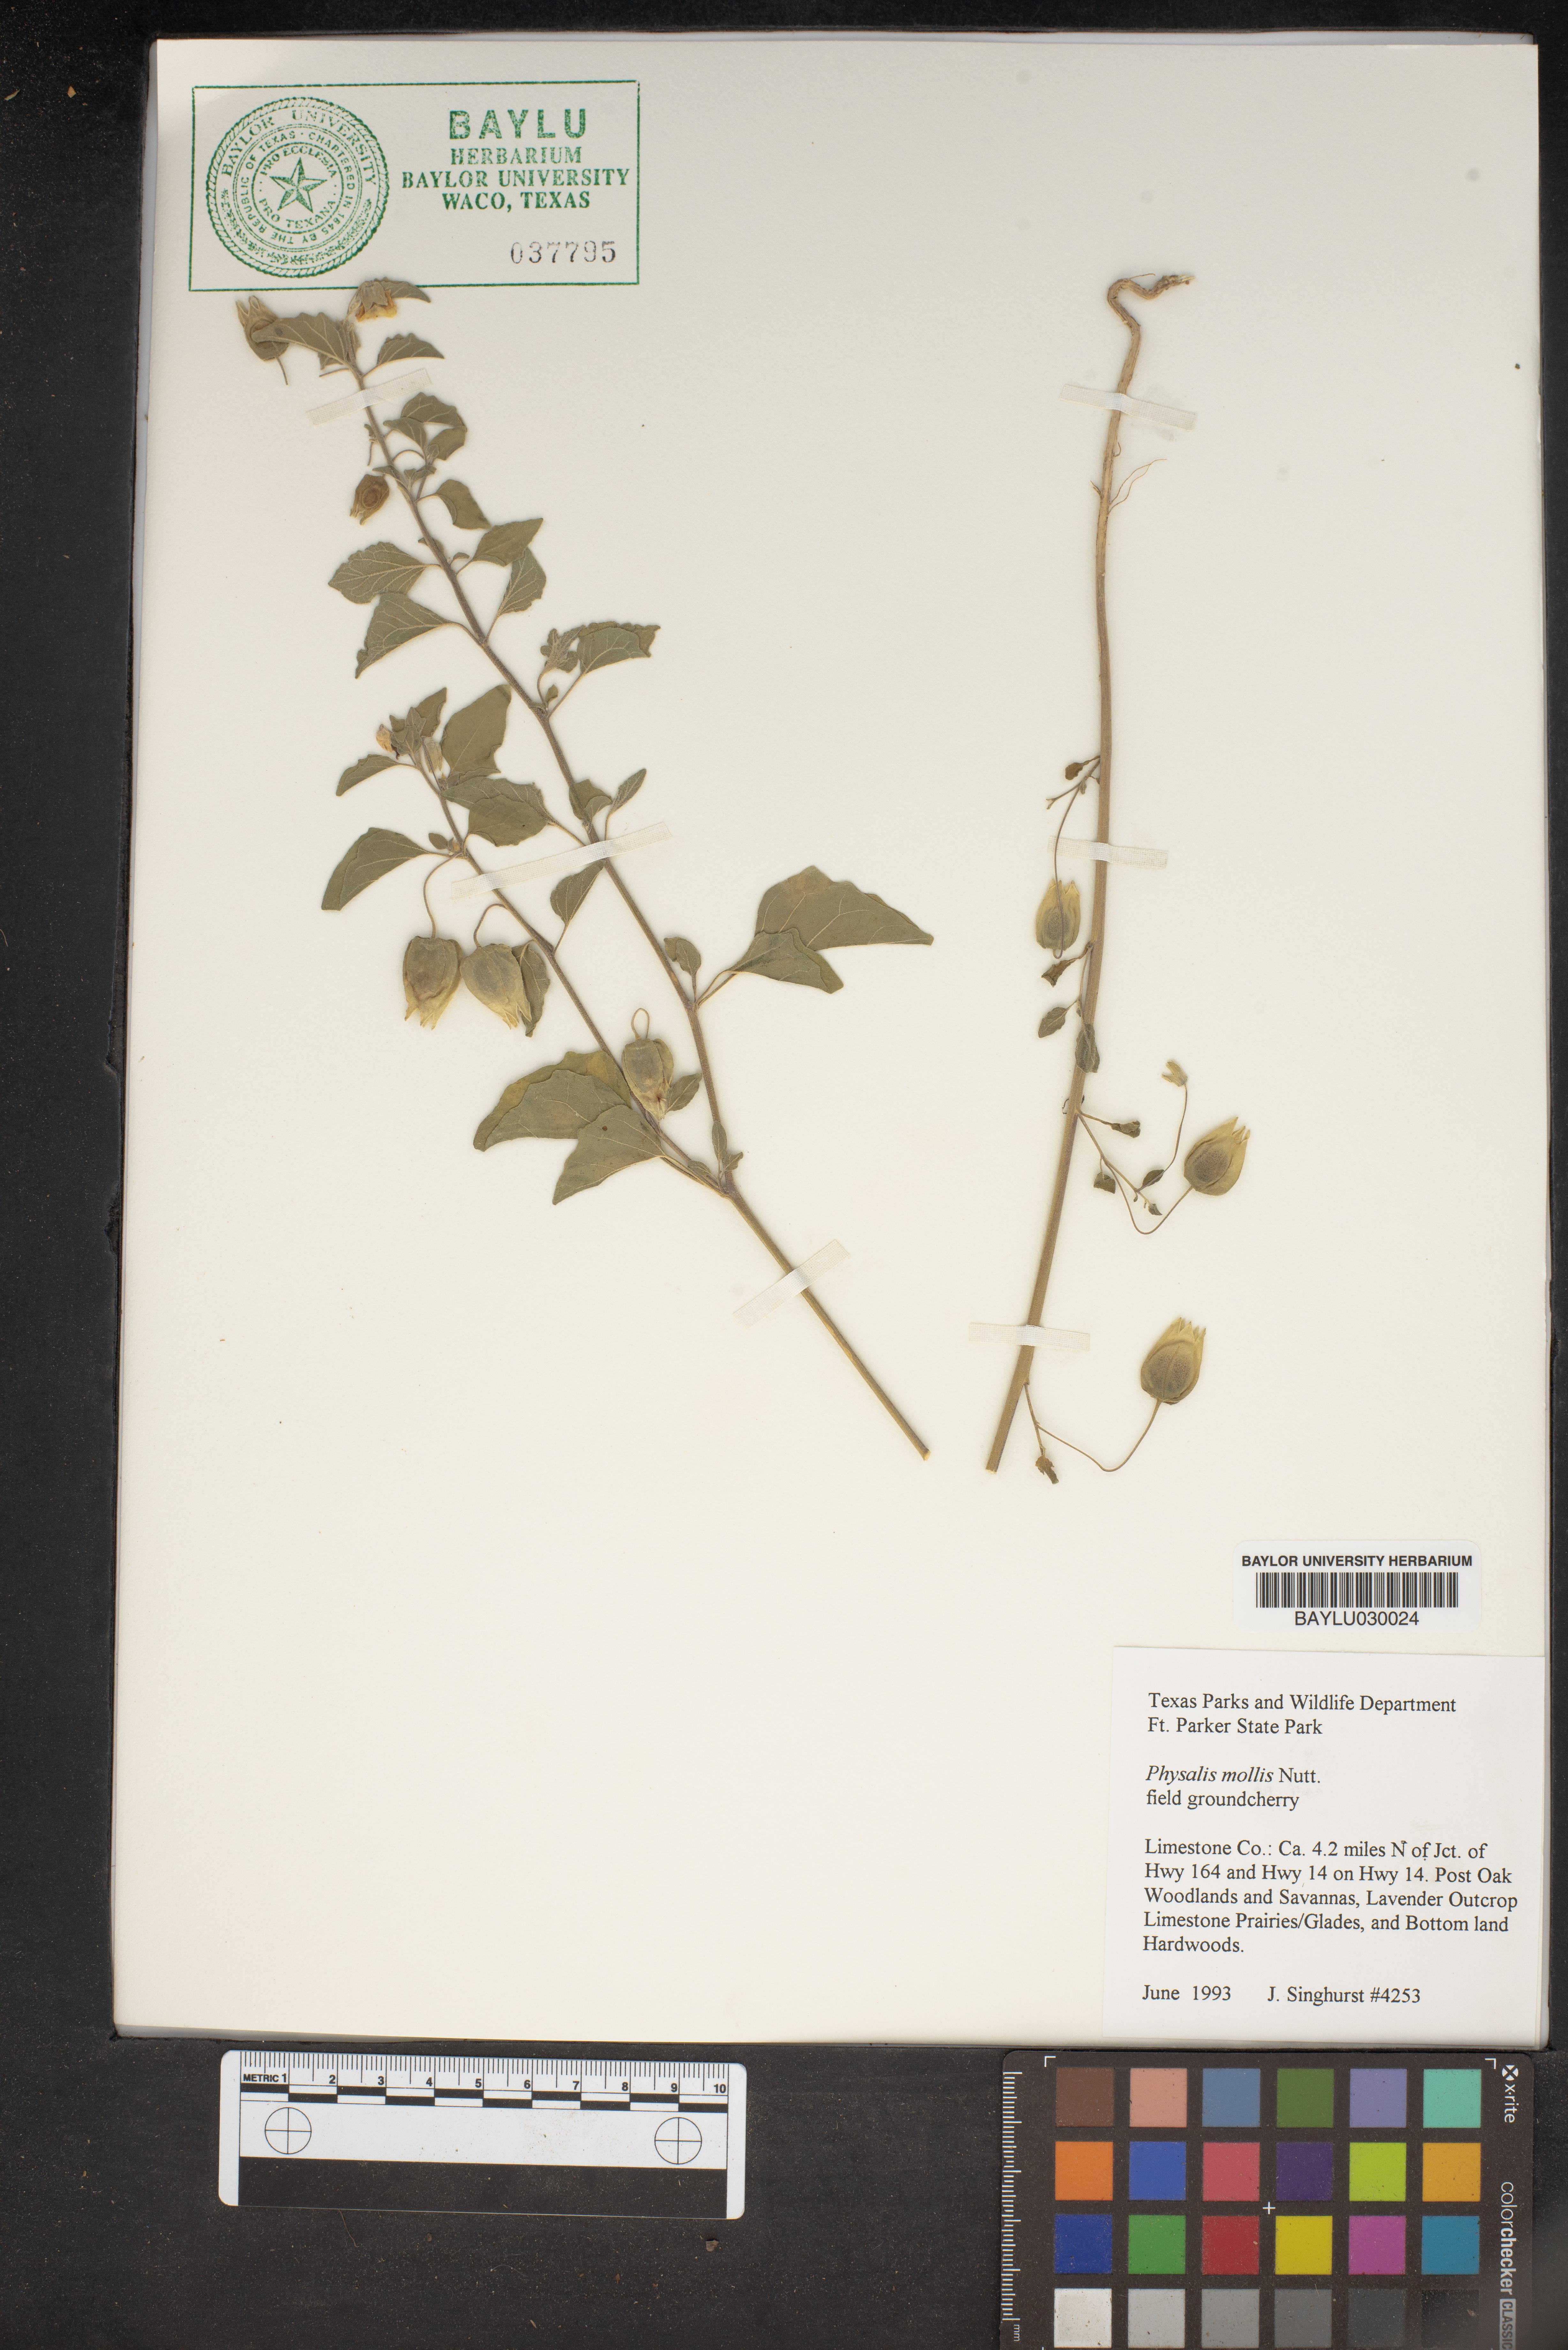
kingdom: Plantae
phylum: Tracheophyta
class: Magnoliopsida
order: Solanales
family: Solanaceae
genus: Physalis
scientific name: Physalis mollis
